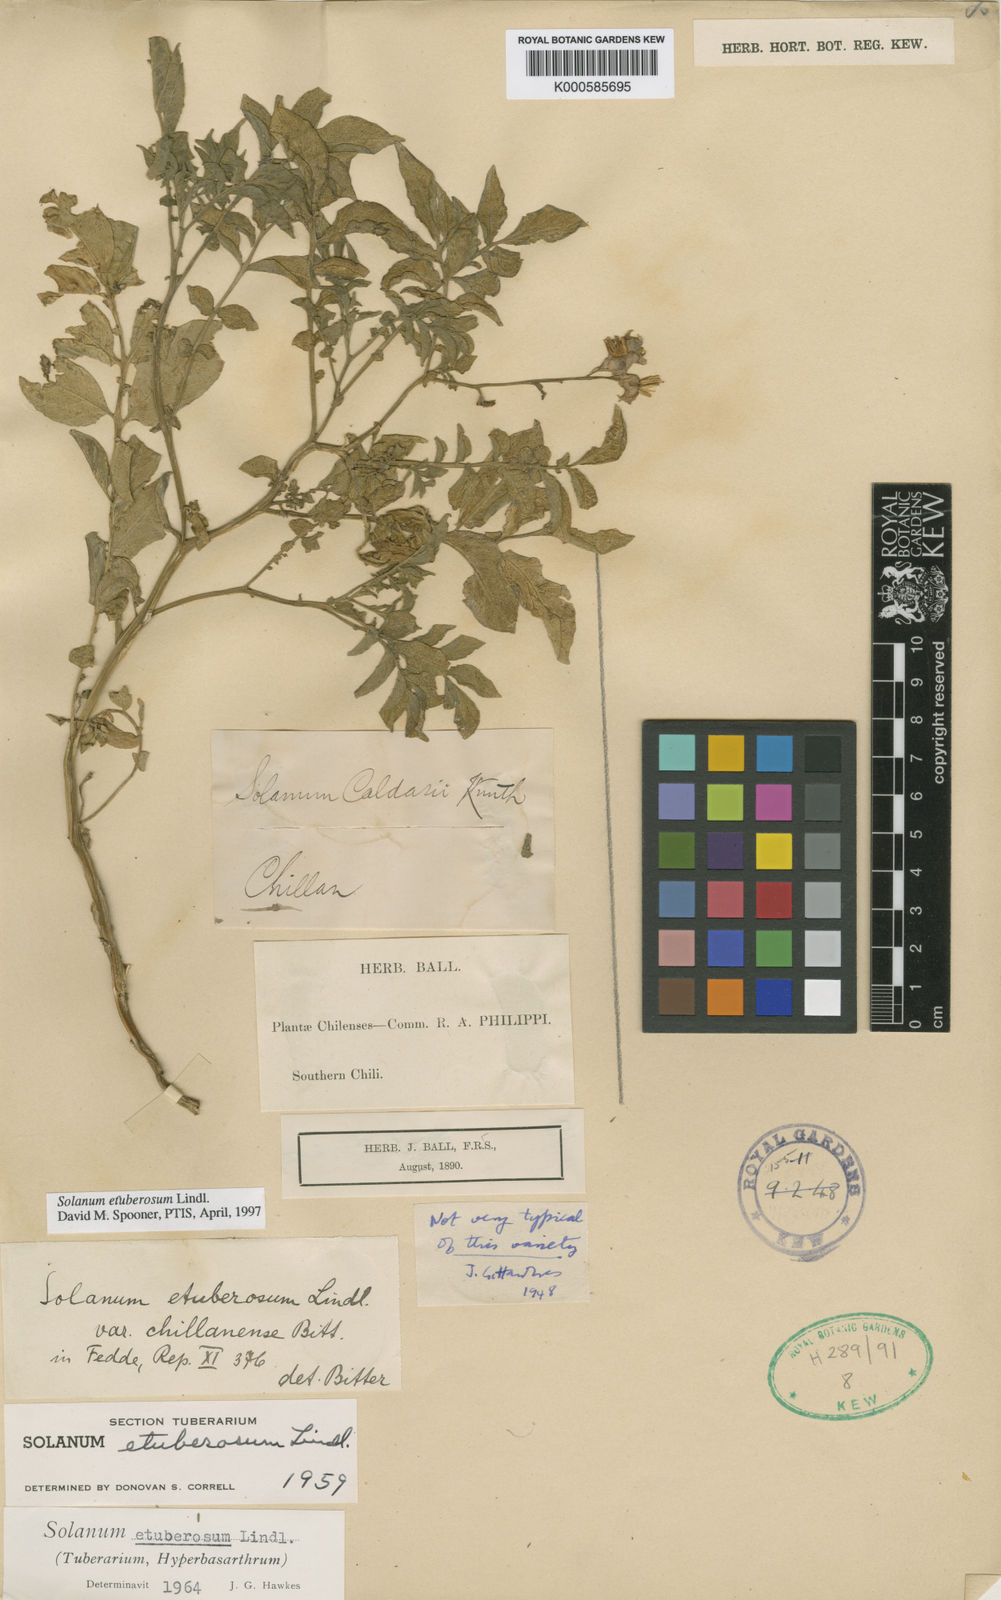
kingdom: Plantae
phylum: Tracheophyta
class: Magnoliopsida
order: Solanales
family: Solanaceae
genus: Solanum
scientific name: Solanum etuberosum
